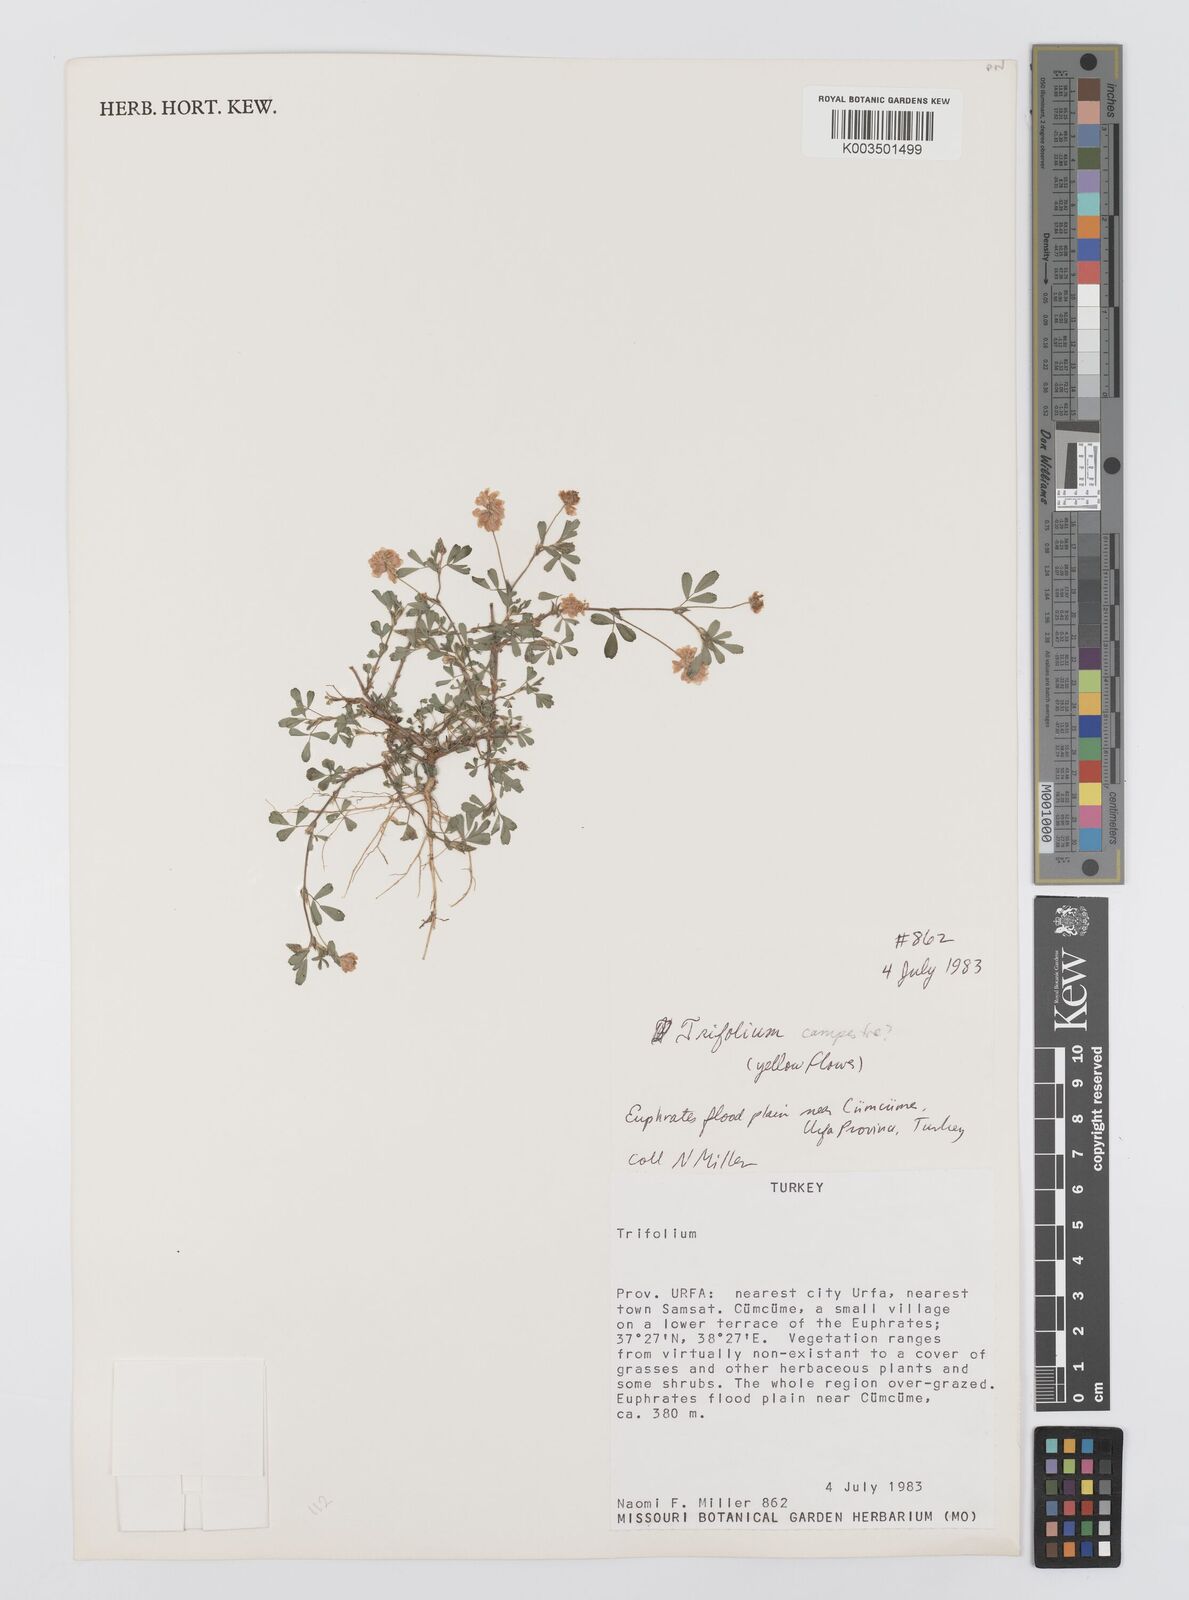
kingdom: Plantae
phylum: Tracheophyta
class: Magnoliopsida
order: Fabales
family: Fabaceae
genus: Trifolium
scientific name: Trifolium campestre
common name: Field clover
